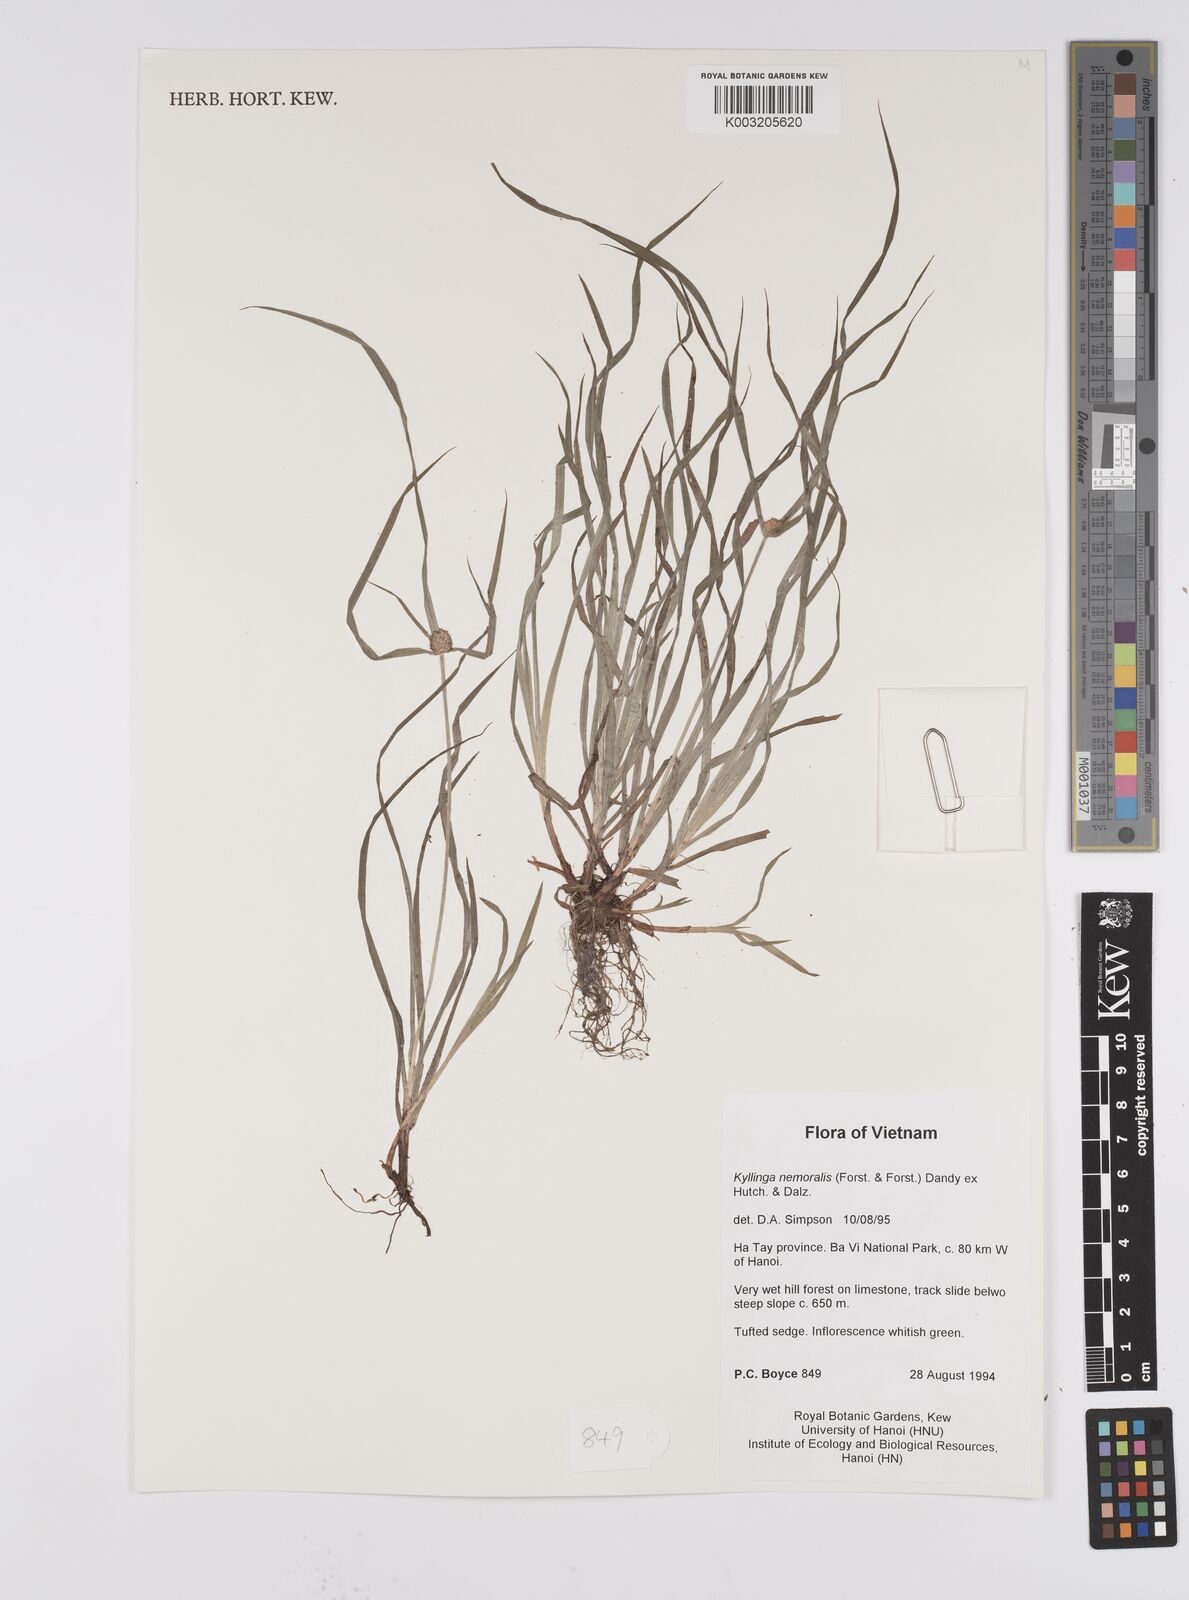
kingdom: Plantae
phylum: Tracheophyta
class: Liliopsida
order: Poales
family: Cyperaceae
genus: Cyperus
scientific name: Cyperus
